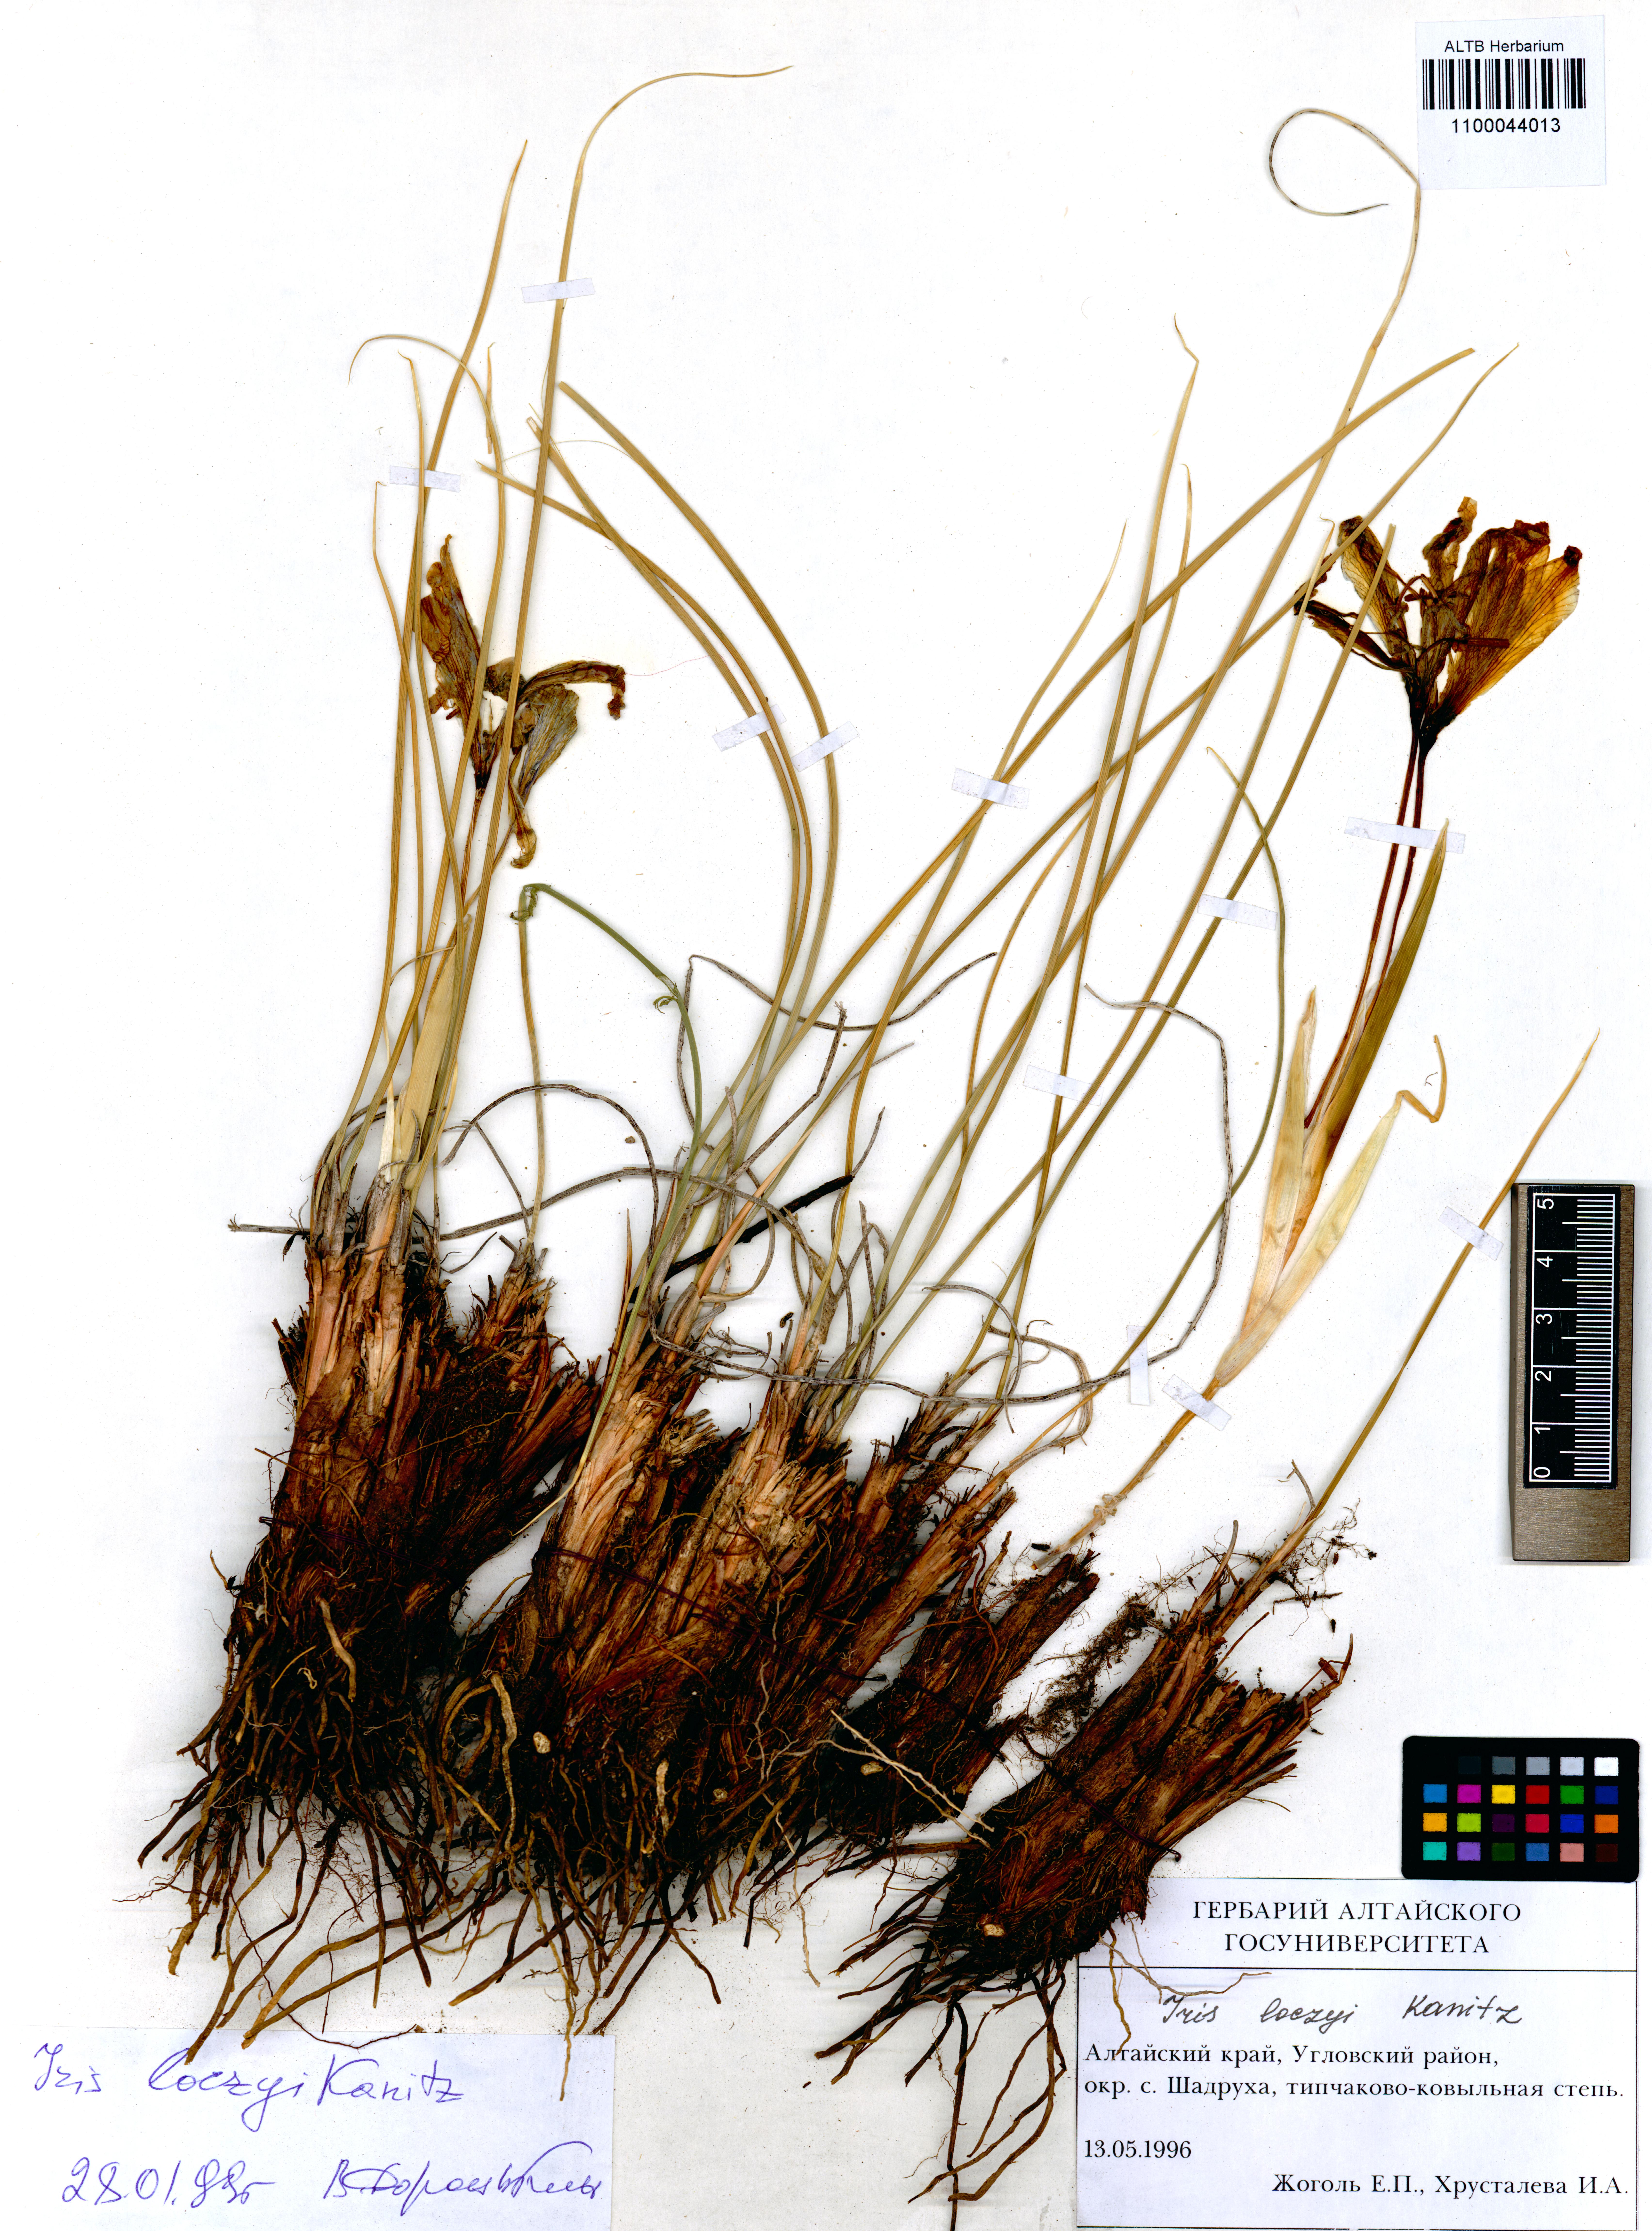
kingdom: Plantae
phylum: Tracheophyta
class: Liliopsida
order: Asparagales
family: Iridaceae
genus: Iris
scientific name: Iris loczyi
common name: Tian shan mountain iris
